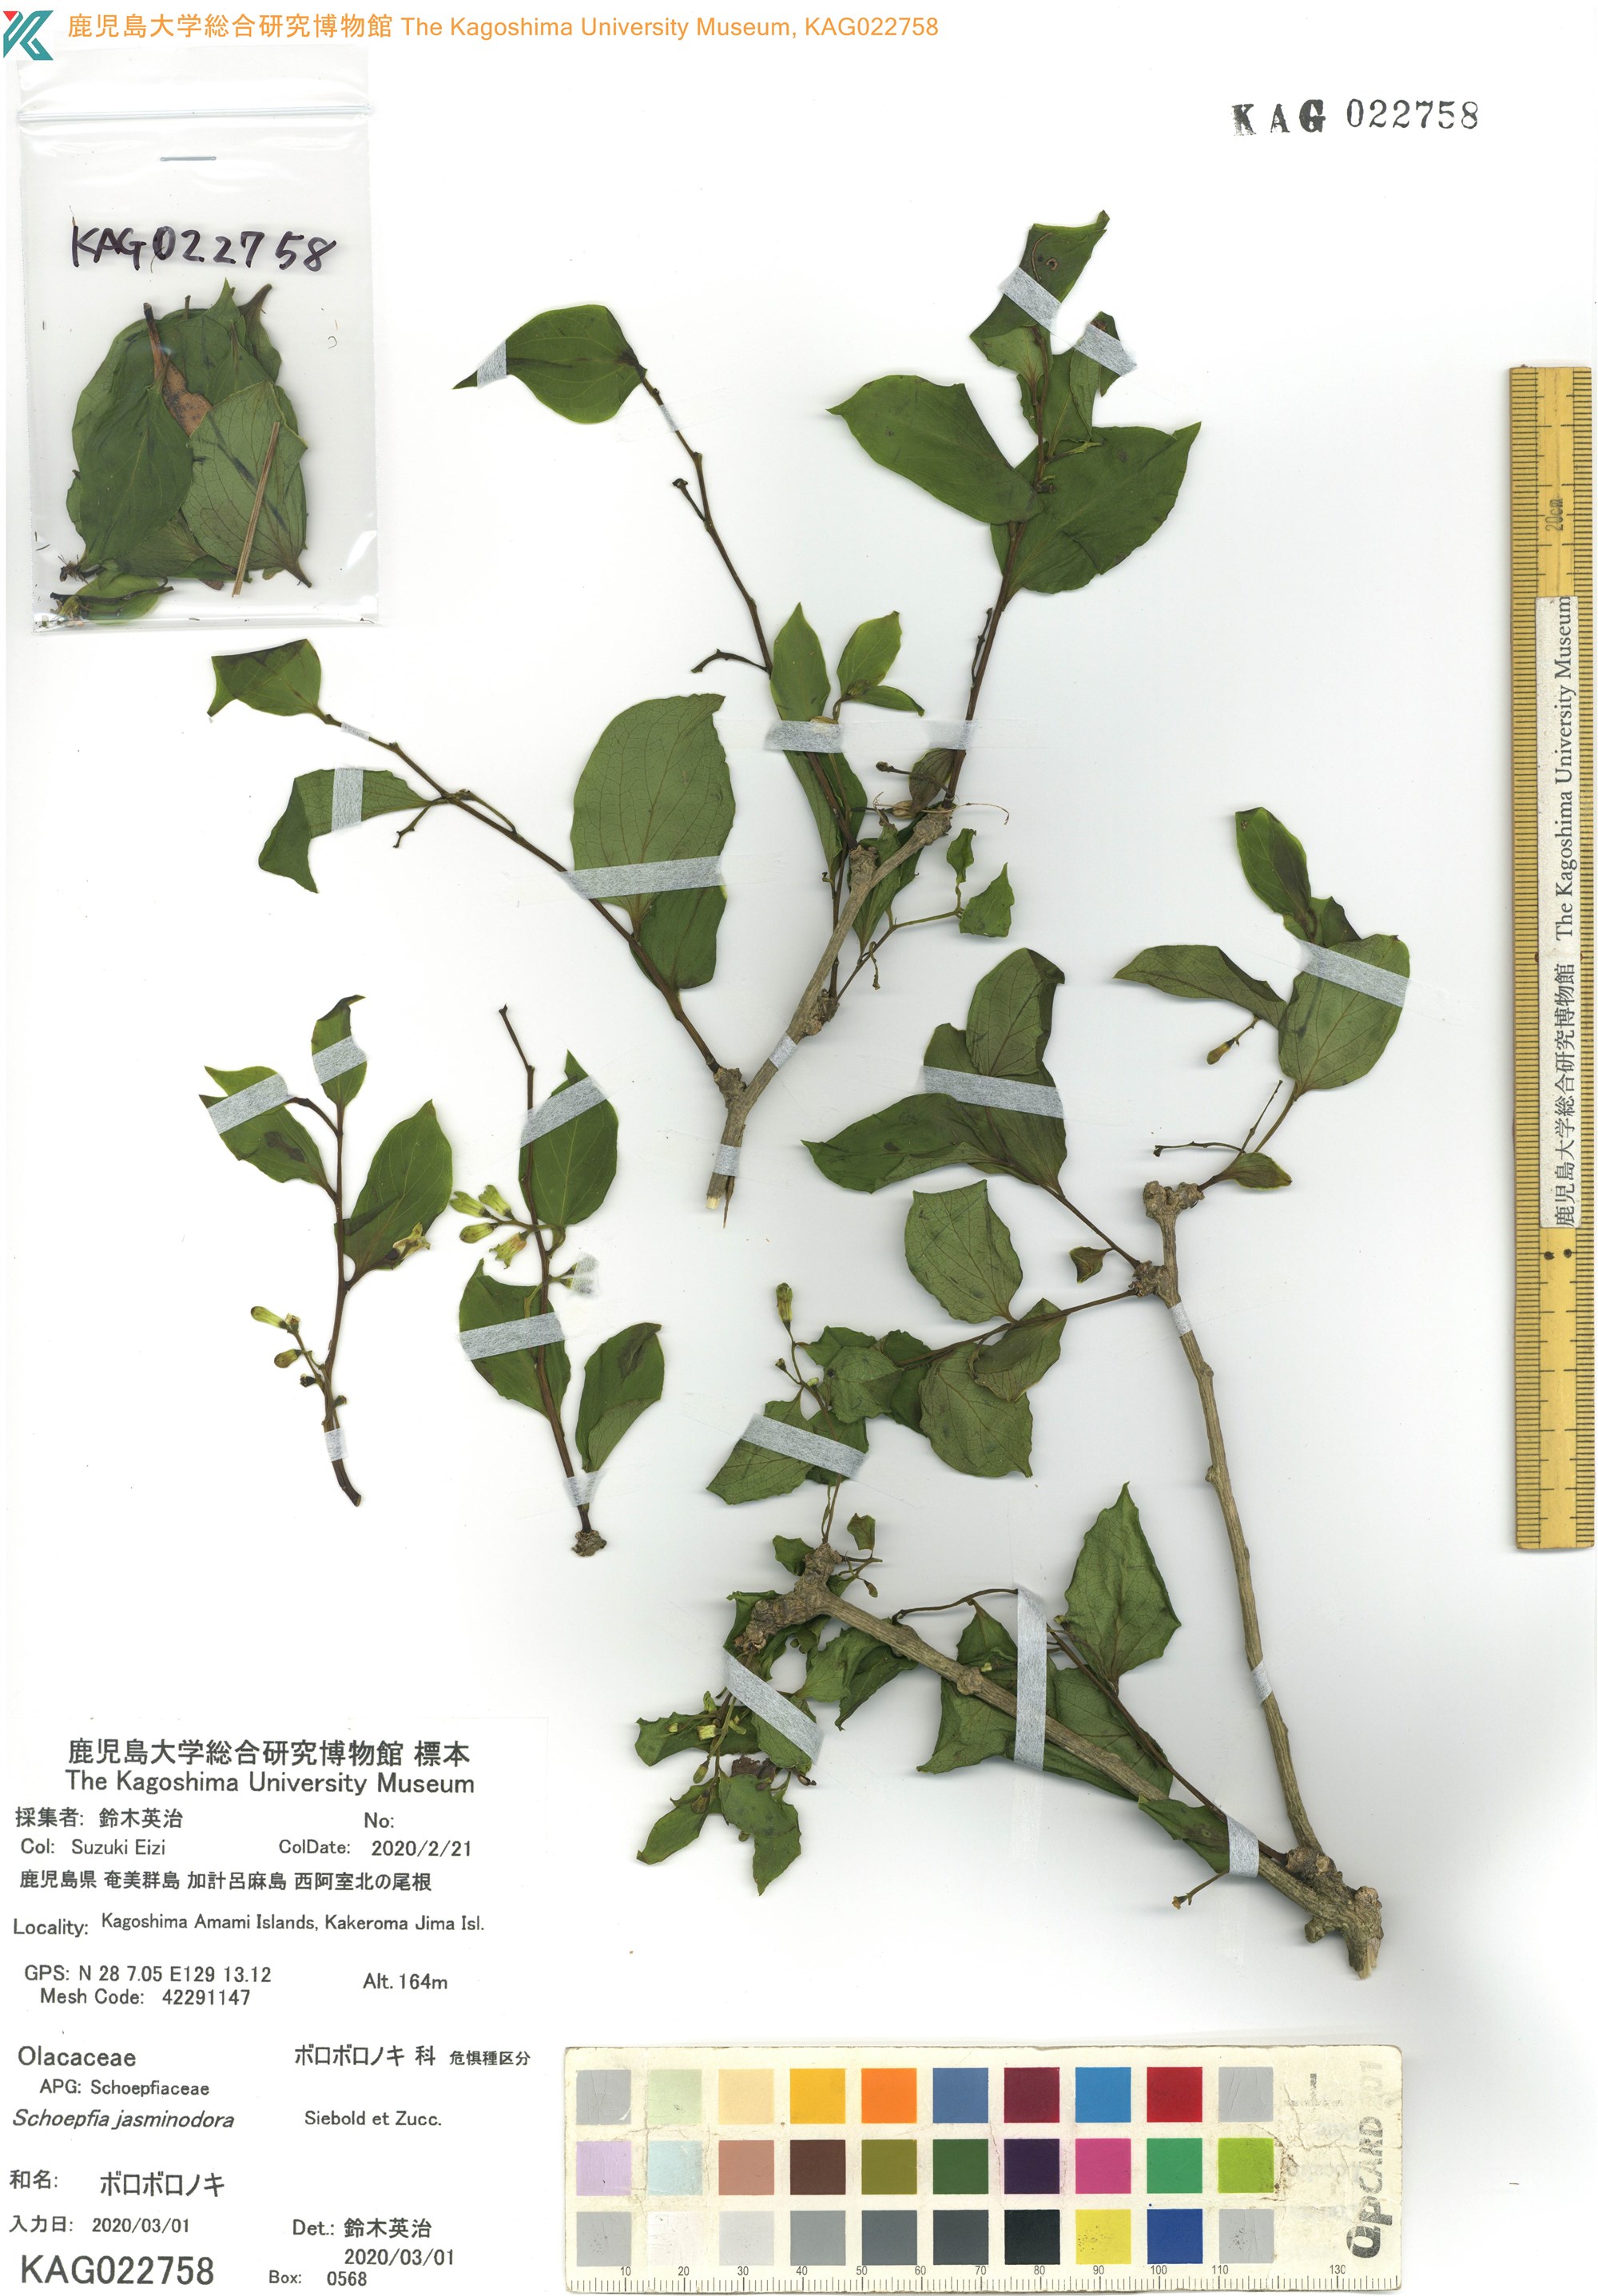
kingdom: Plantae
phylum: Tracheophyta
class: Magnoliopsida
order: Santalales
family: Schoepfiaceae
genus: Schoepfia
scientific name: Schoepfia jasminodora
